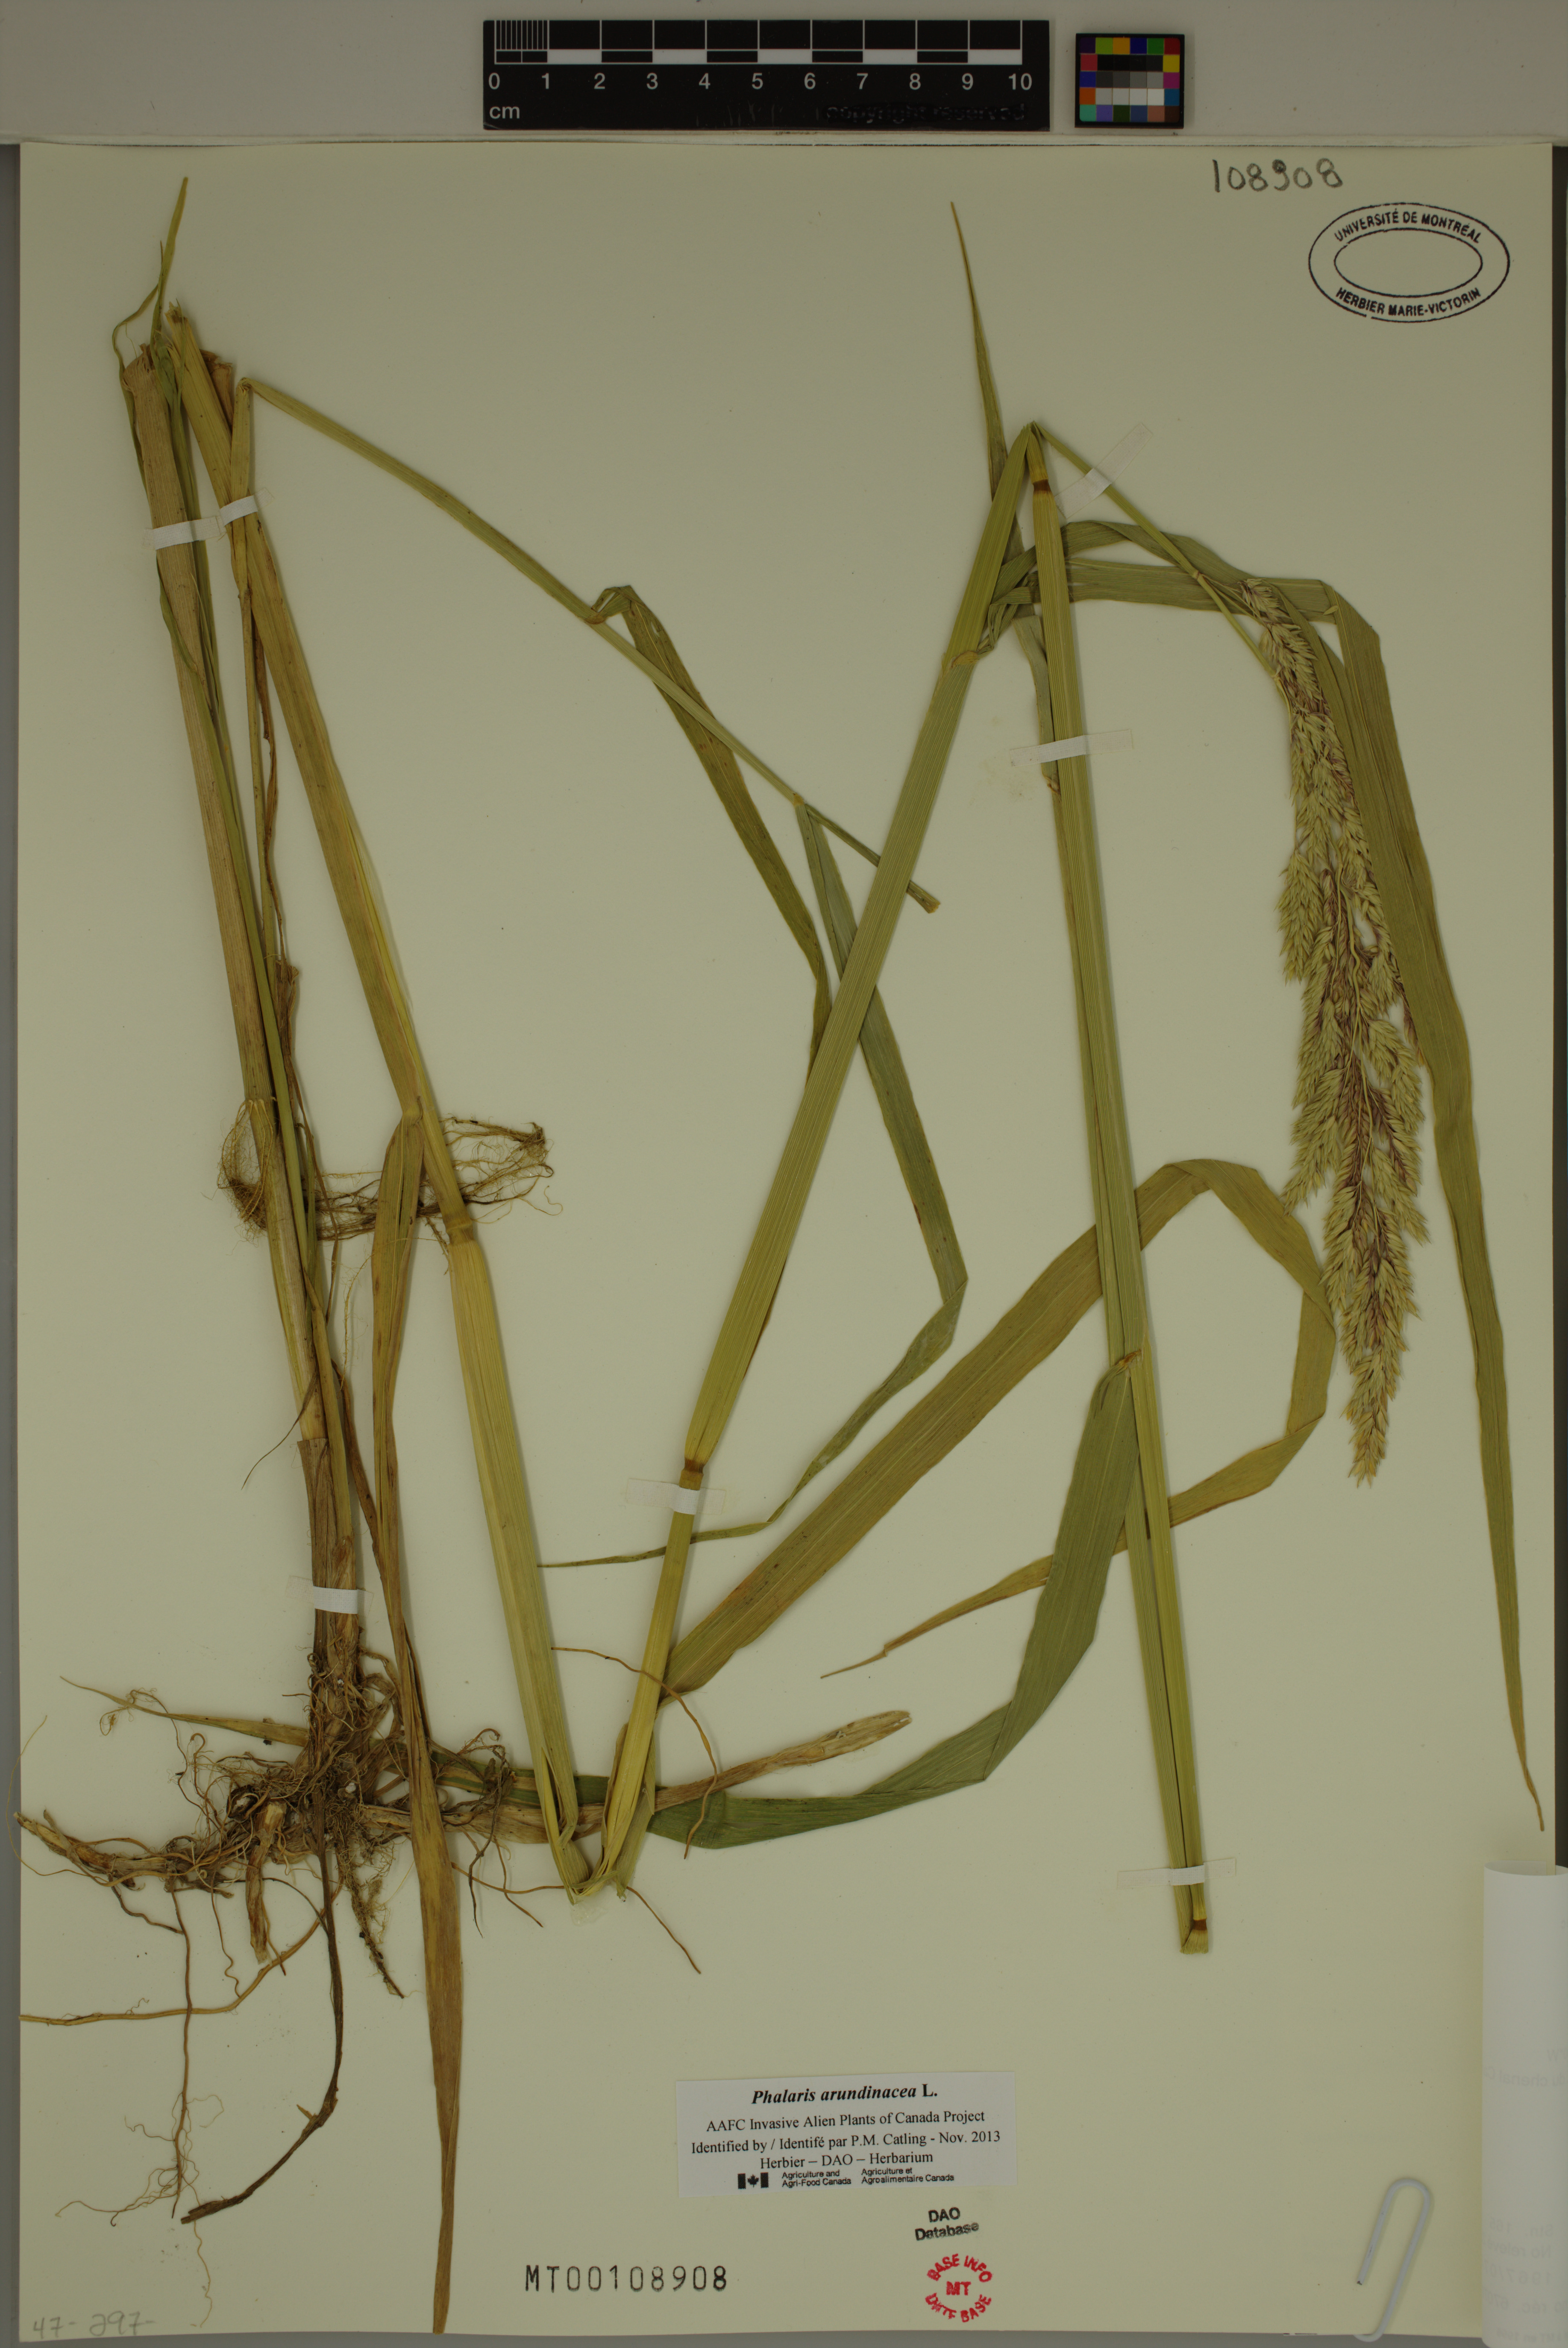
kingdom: Plantae
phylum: Tracheophyta
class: Liliopsida
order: Poales
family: Poaceae
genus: Phalaris
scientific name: Phalaris arundinacea
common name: Reed canary-grass
